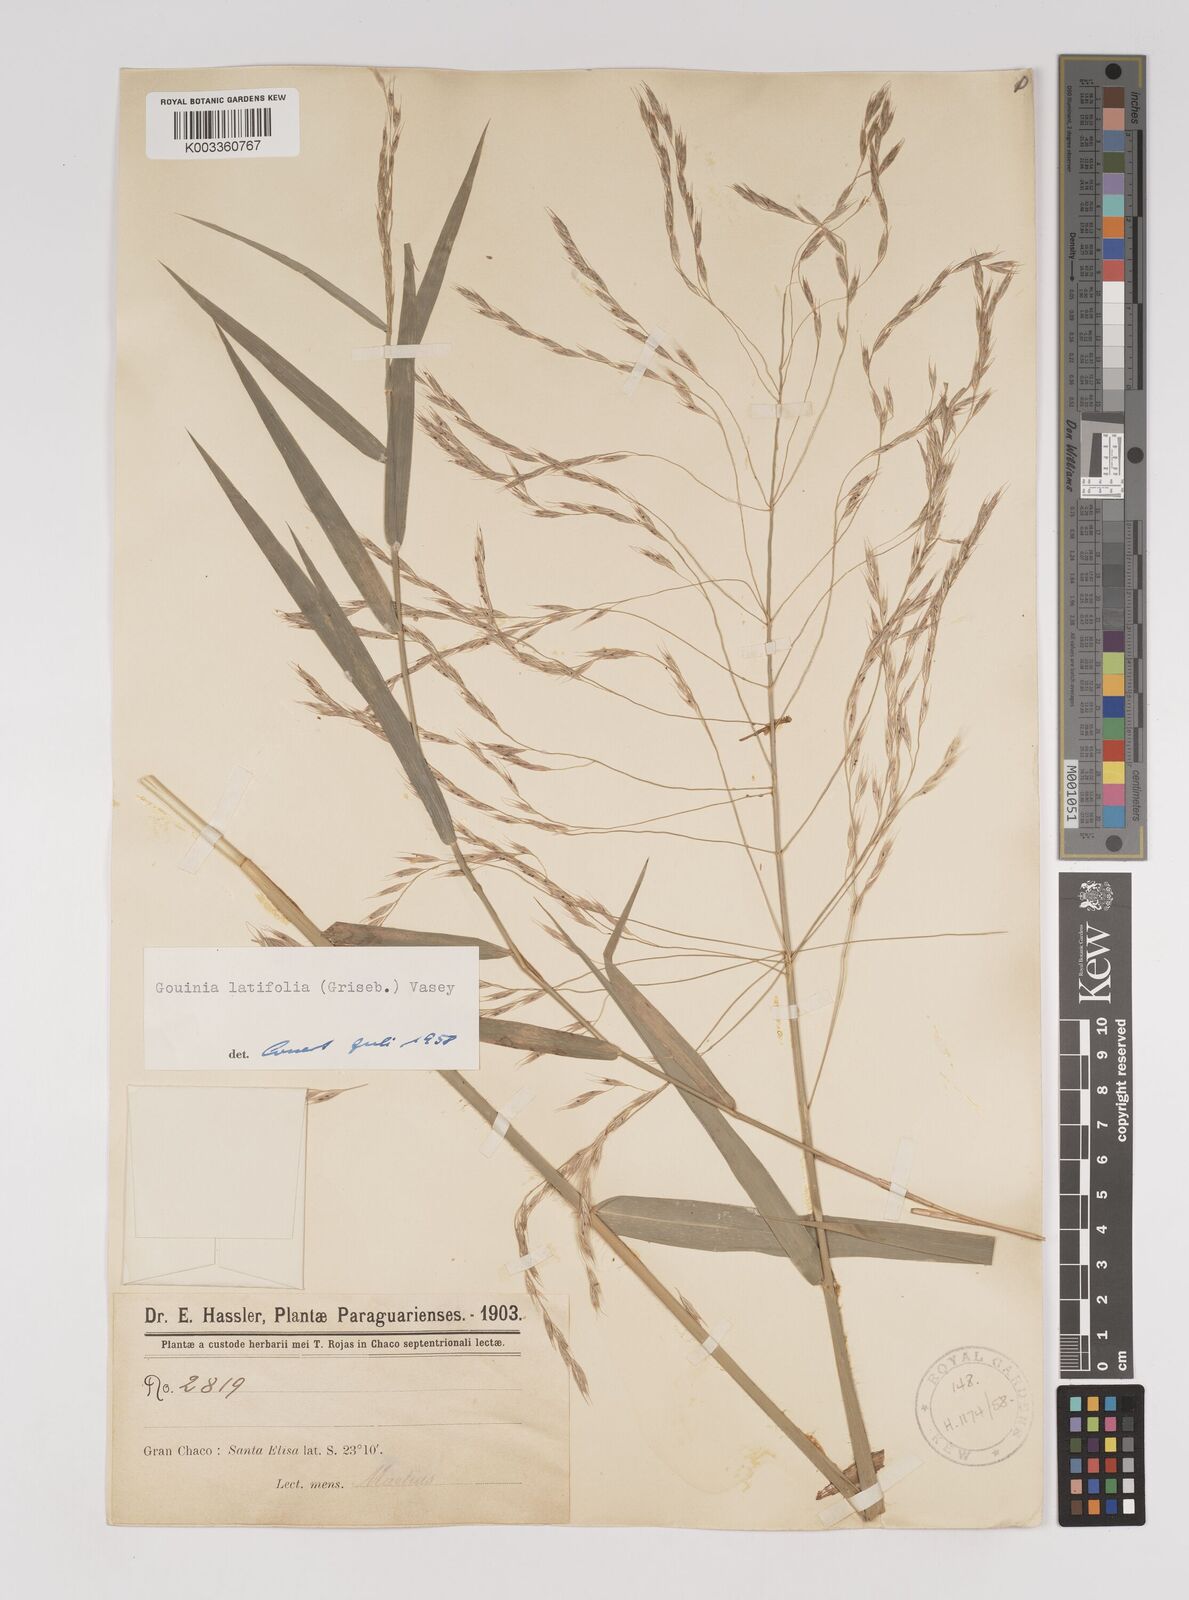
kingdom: Plantae
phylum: Tracheophyta
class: Liliopsida
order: Poales
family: Poaceae
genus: Gouinia
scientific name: Gouinia latifolia
